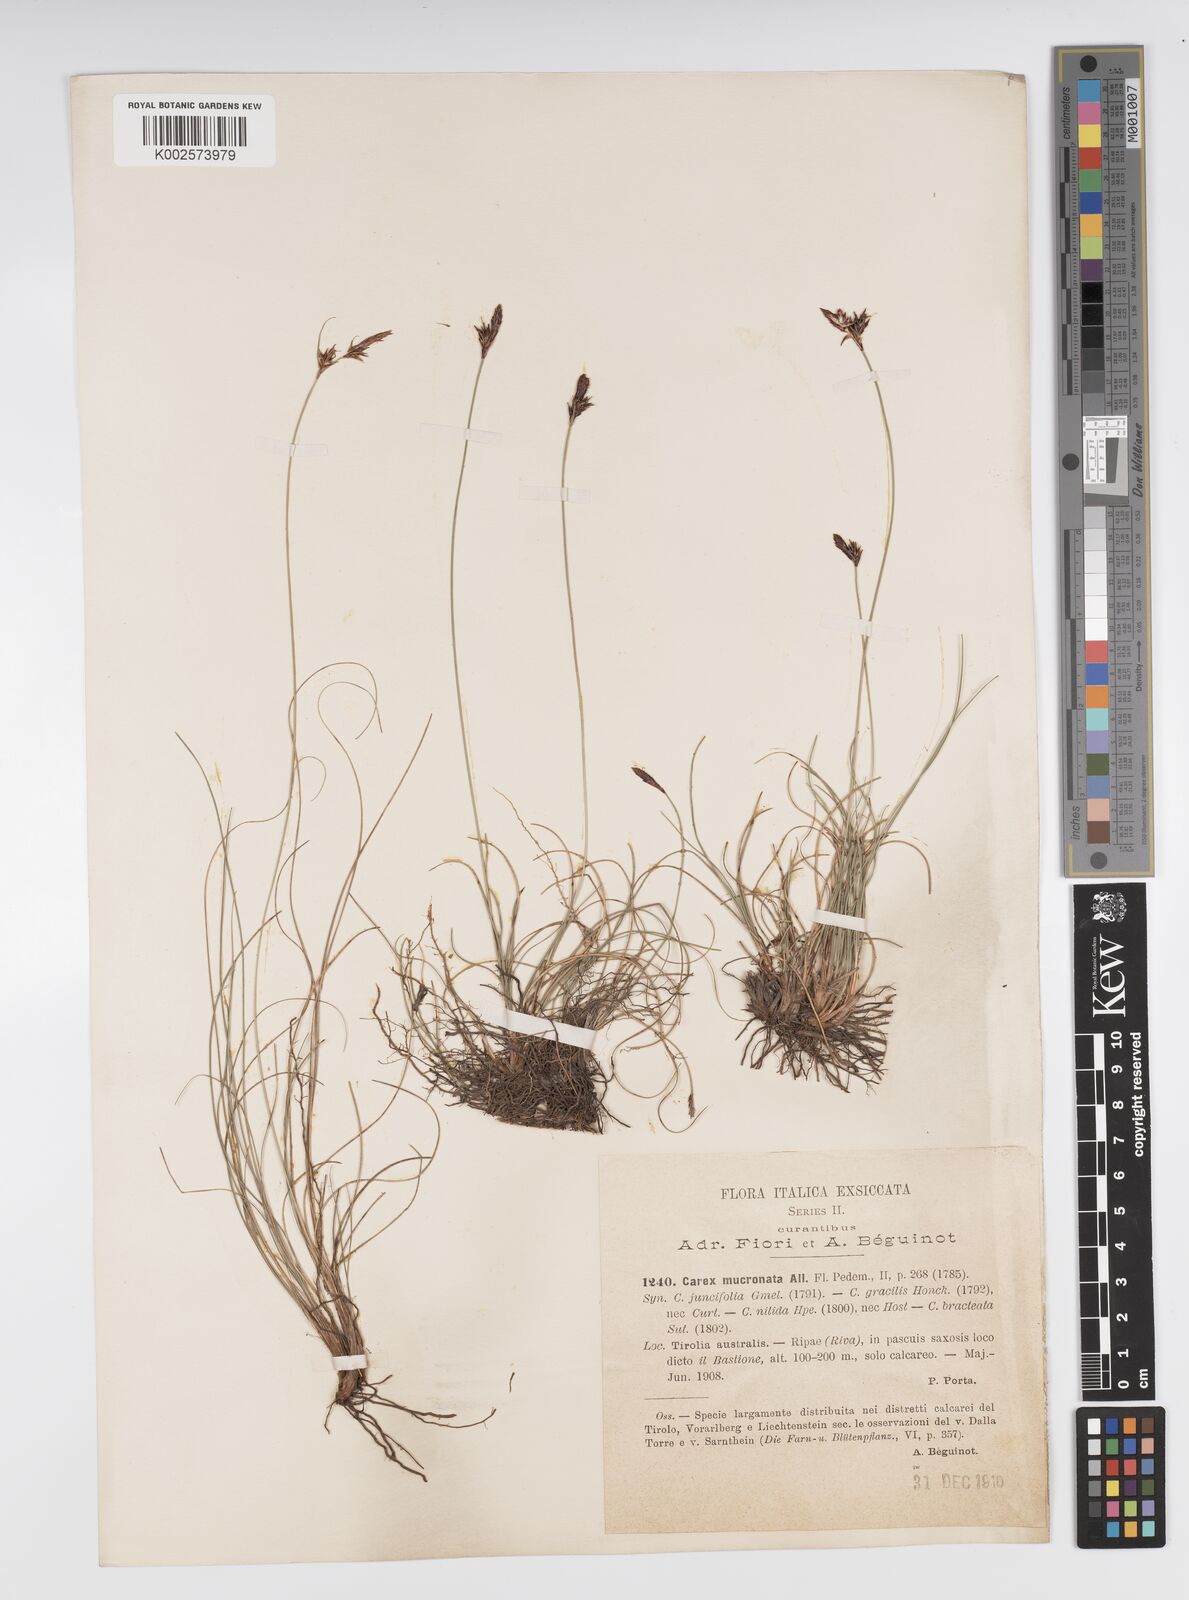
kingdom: Plantae
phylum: Tracheophyta
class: Liliopsida
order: Poales
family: Cyperaceae
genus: Carex
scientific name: Carex mucronata
